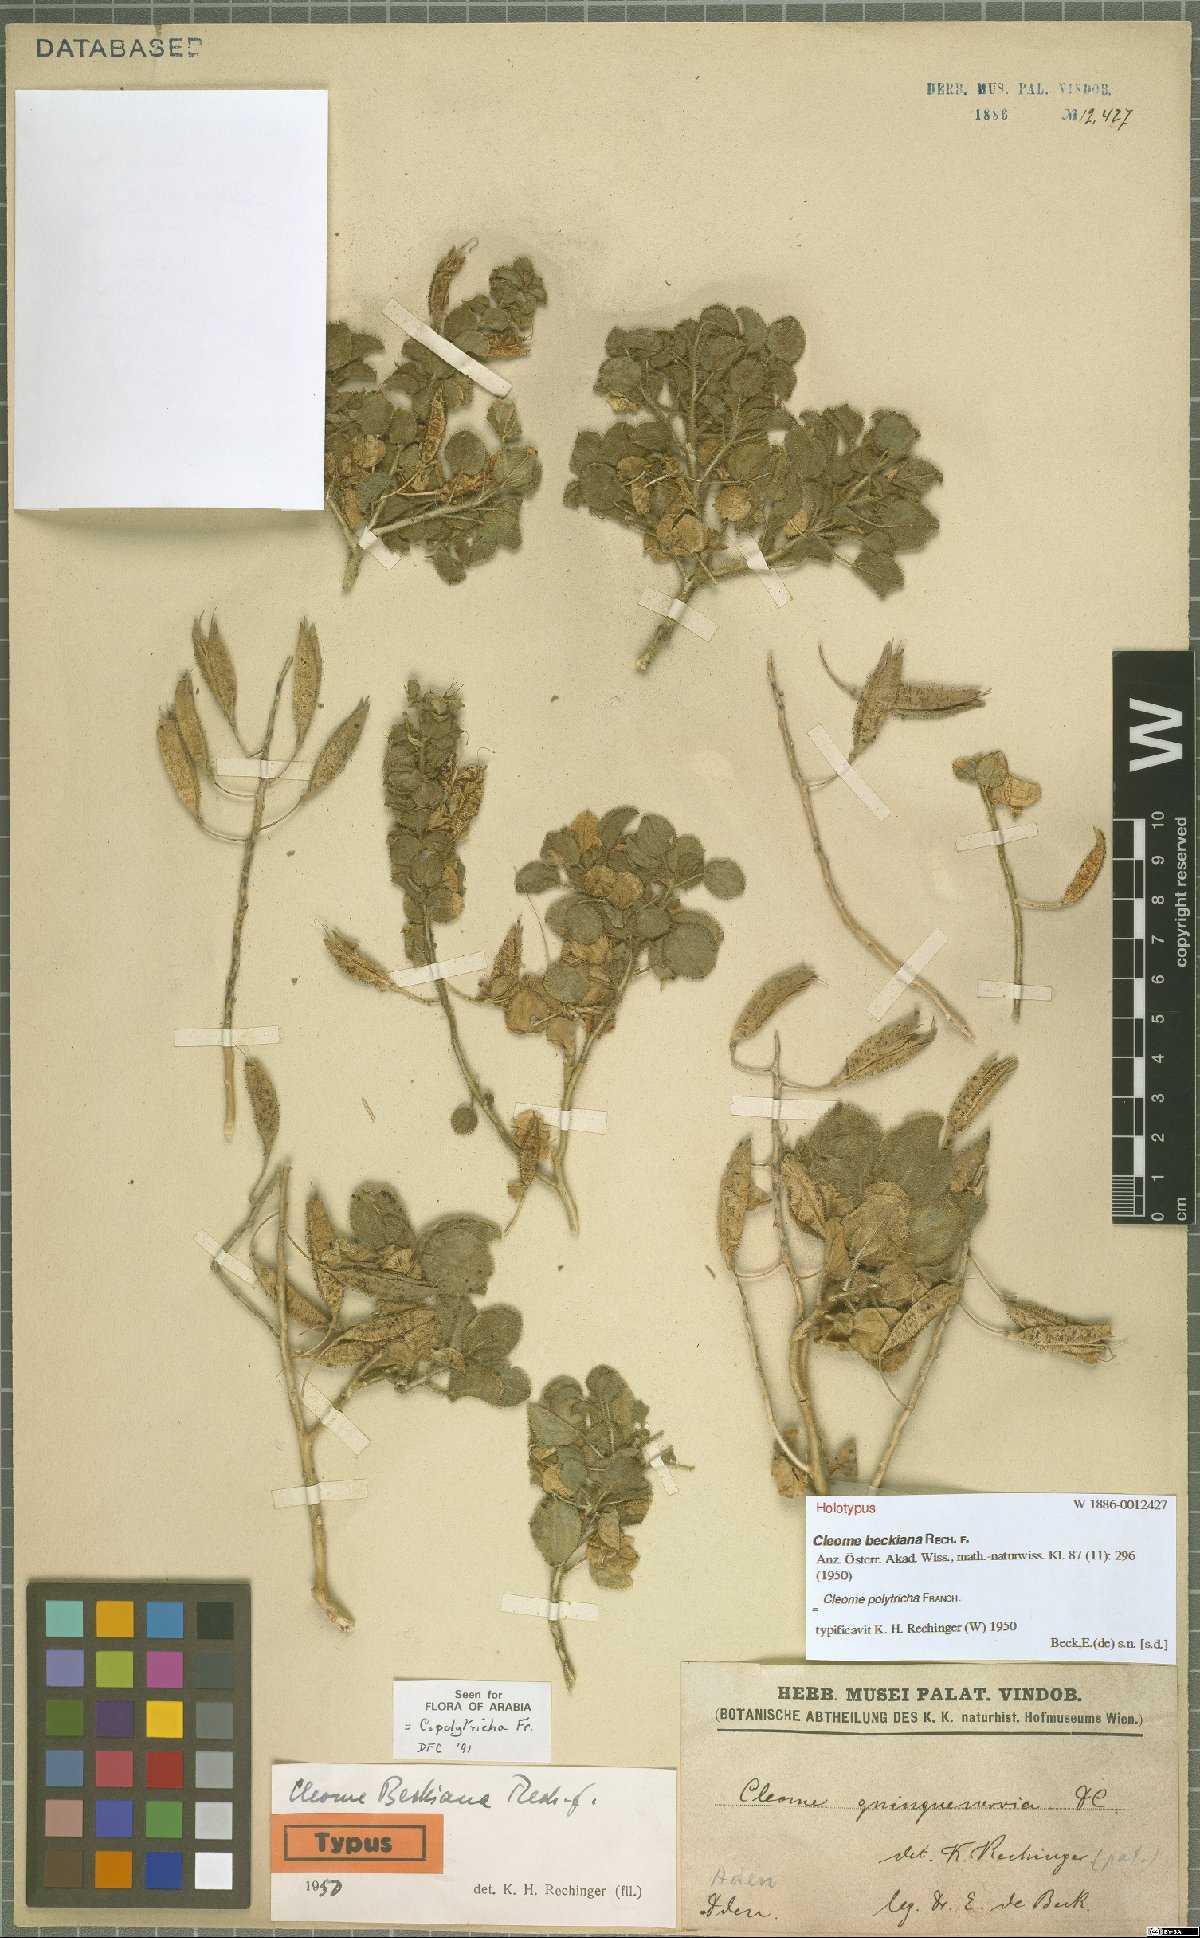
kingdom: Plantae
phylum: Tracheophyta
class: Magnoliopsida
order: Brassicales
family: Cleomaceae
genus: Rorida
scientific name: Rorida polytricha
